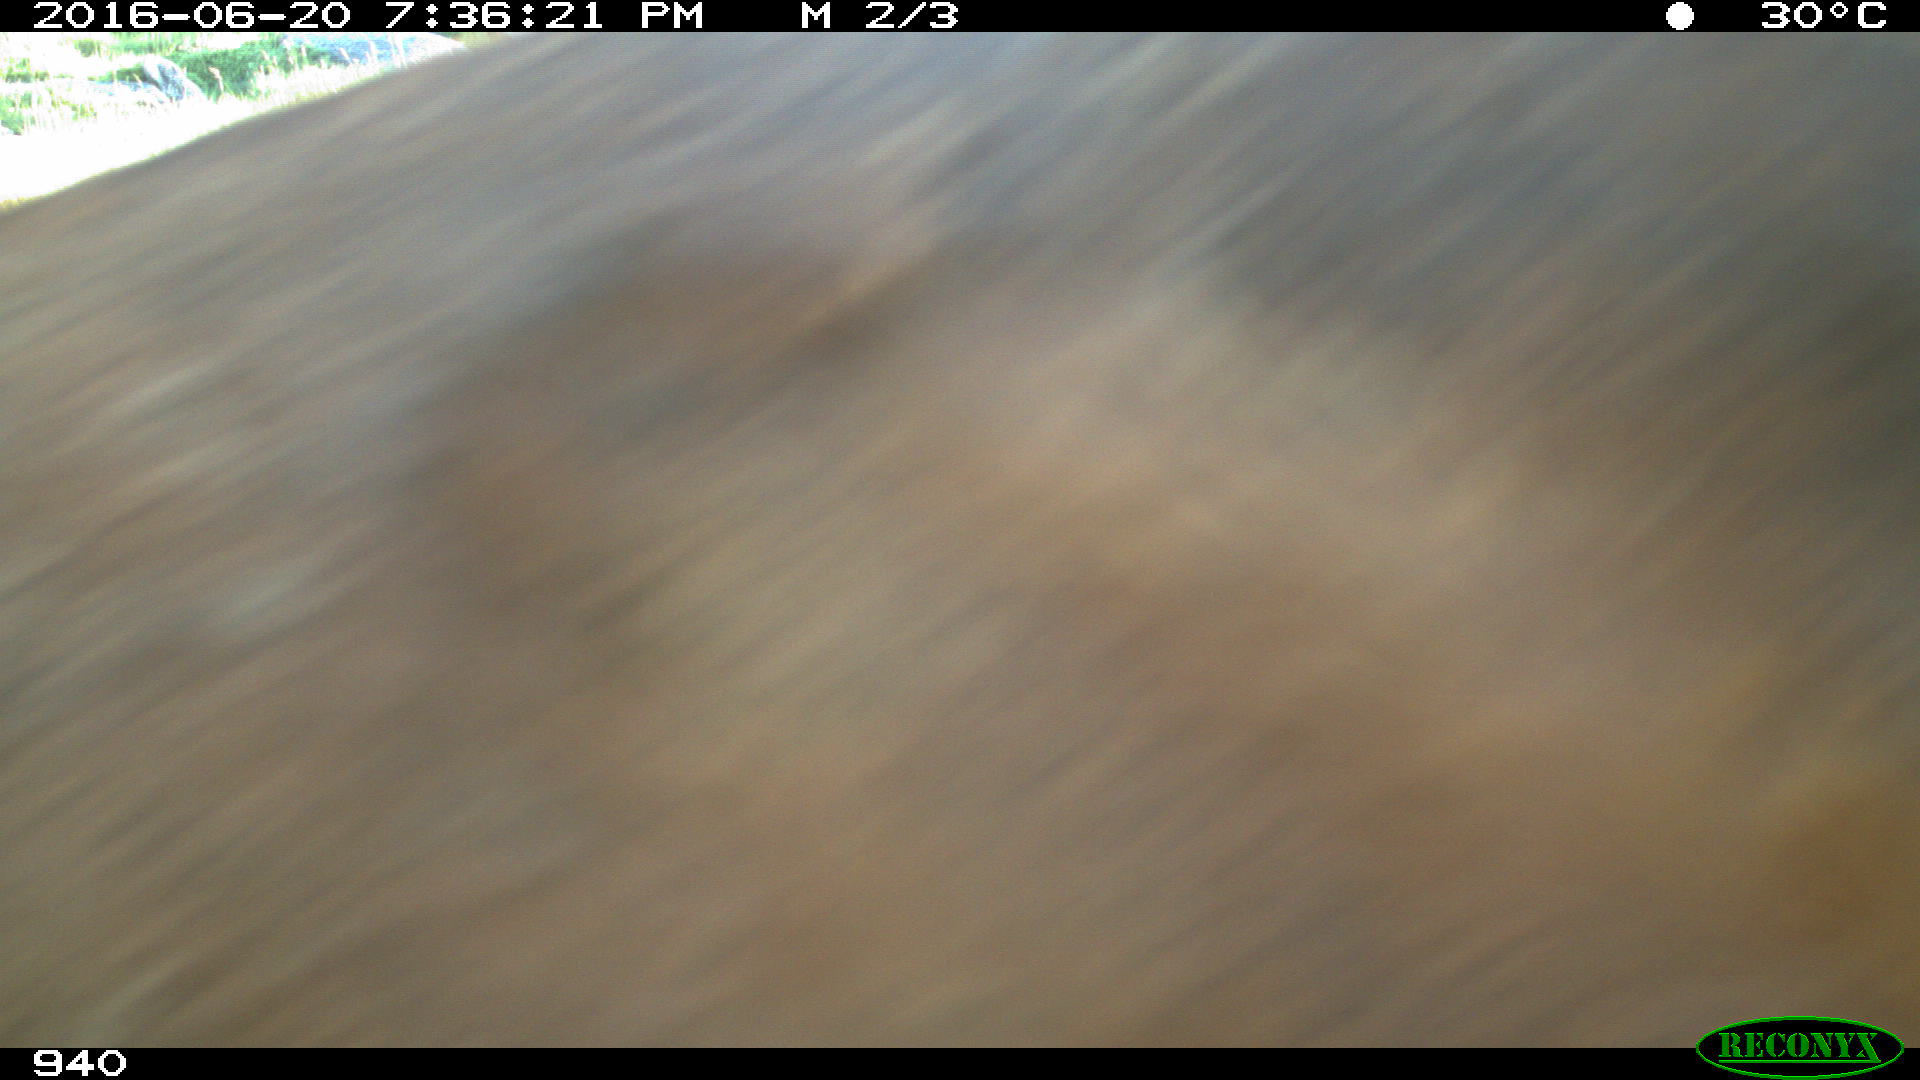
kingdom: Animalia
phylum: Chordata
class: Mammalia
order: Perissodactyla
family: Equidae
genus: Equus
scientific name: Equus caballus
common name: Horse
